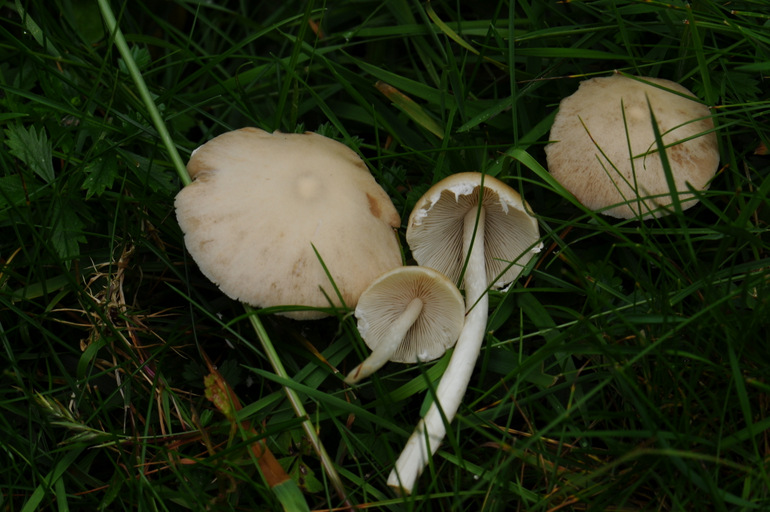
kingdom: Fungi
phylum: Basidiomycota
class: Agaricomycetes
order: Agaricales
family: Psathyrellaceae
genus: Candolleomyces
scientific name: Candolleomyces candolleanus
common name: Candolles mørkhat
